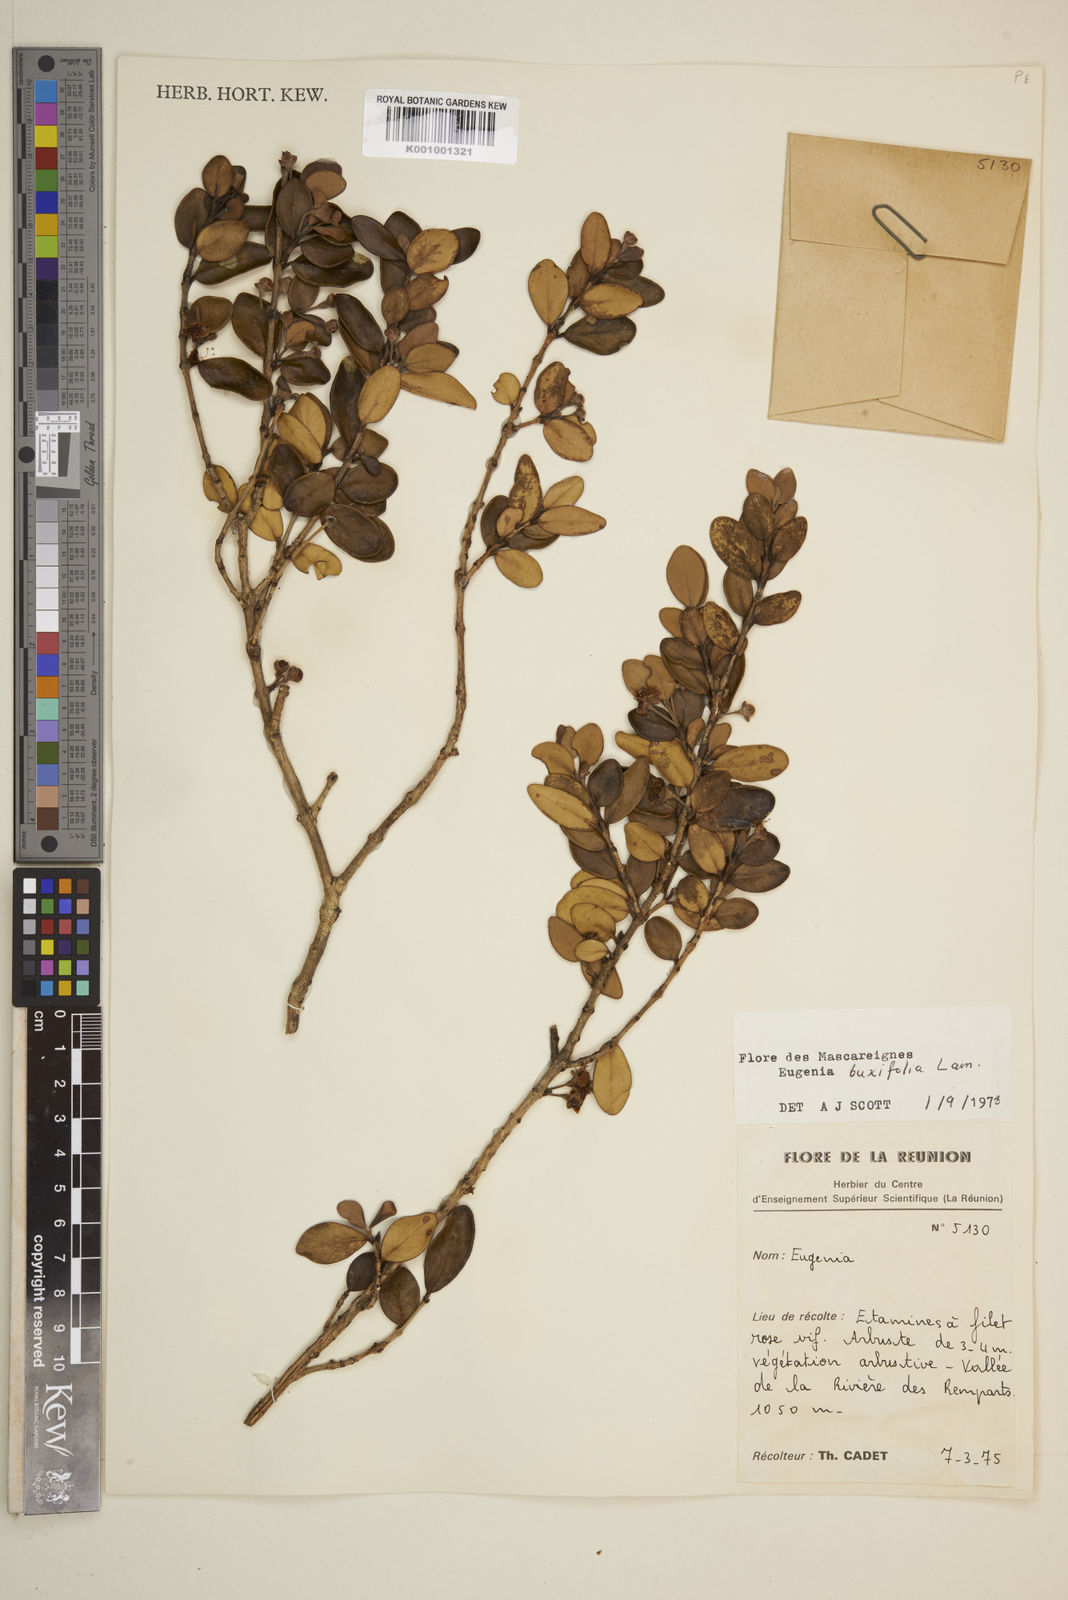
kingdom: Plantae
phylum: Tracheophyta
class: Magnoliopsida
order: Myrtales
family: Myrtaceae
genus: Eugenia
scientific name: Eugenia buxifolia
